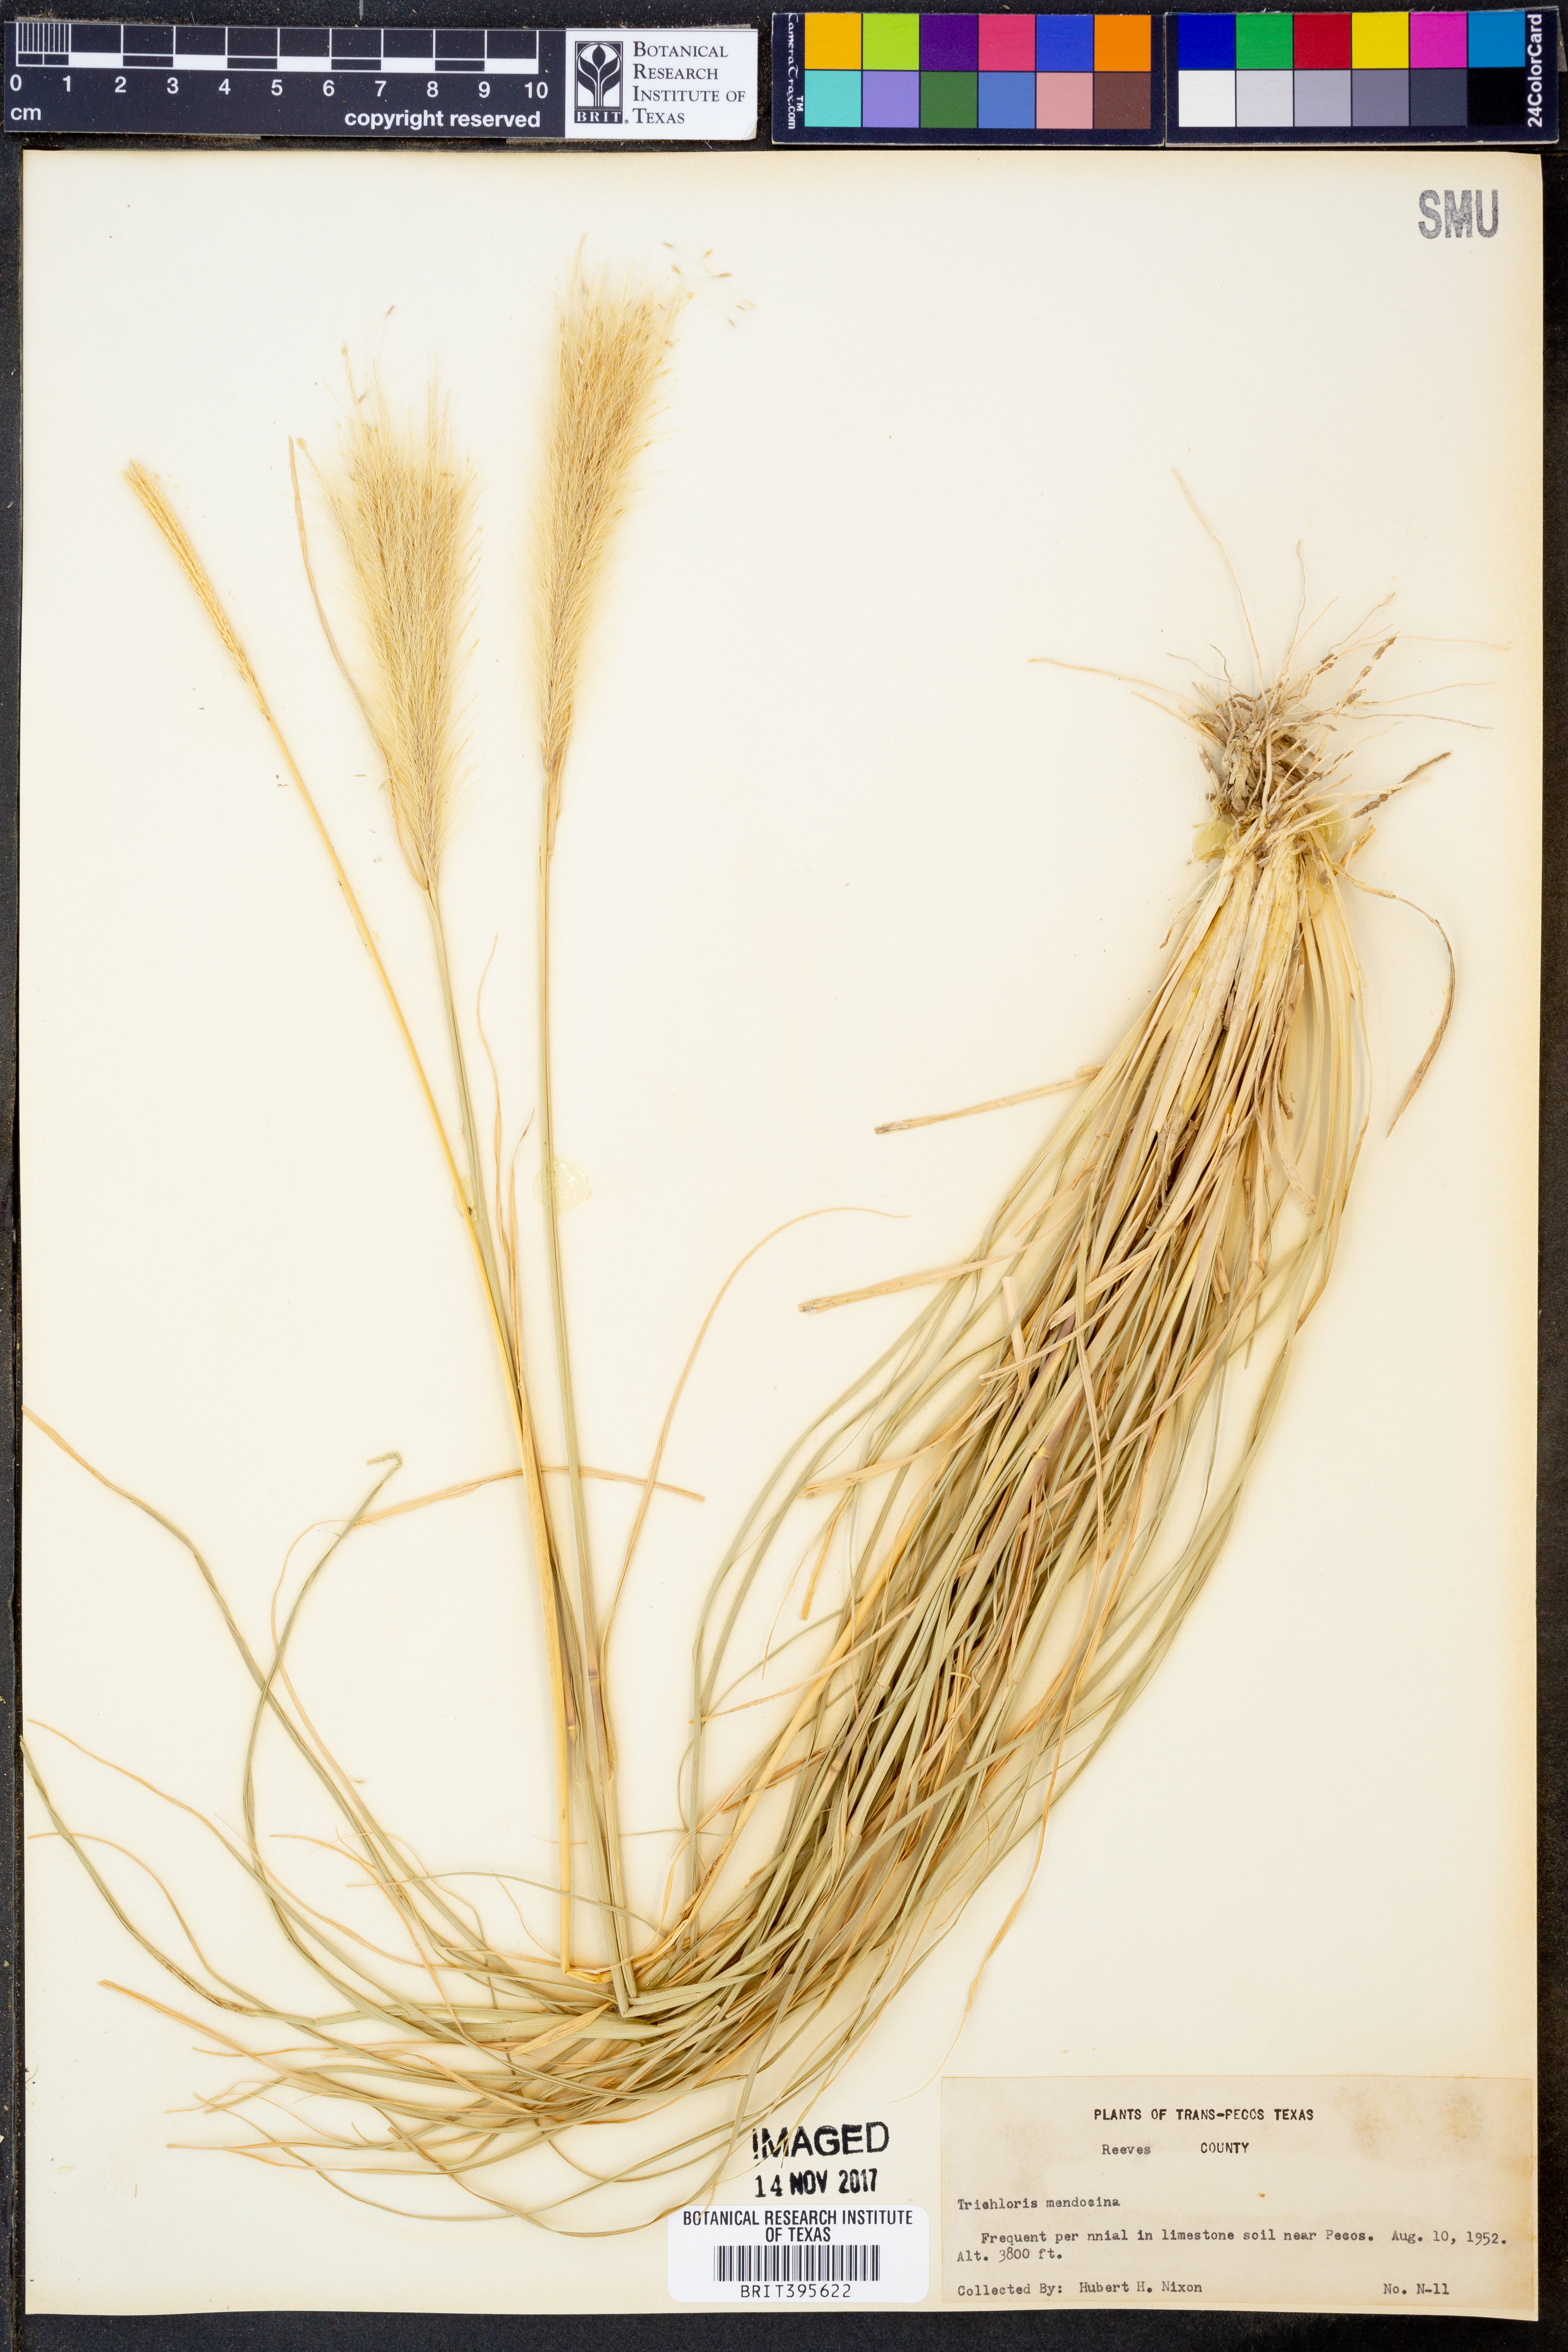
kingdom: Plantae
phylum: Tracheophyta
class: Liliopsida
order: Poales
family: Poaceae
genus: Leptochloa
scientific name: Leptochloa crinita
